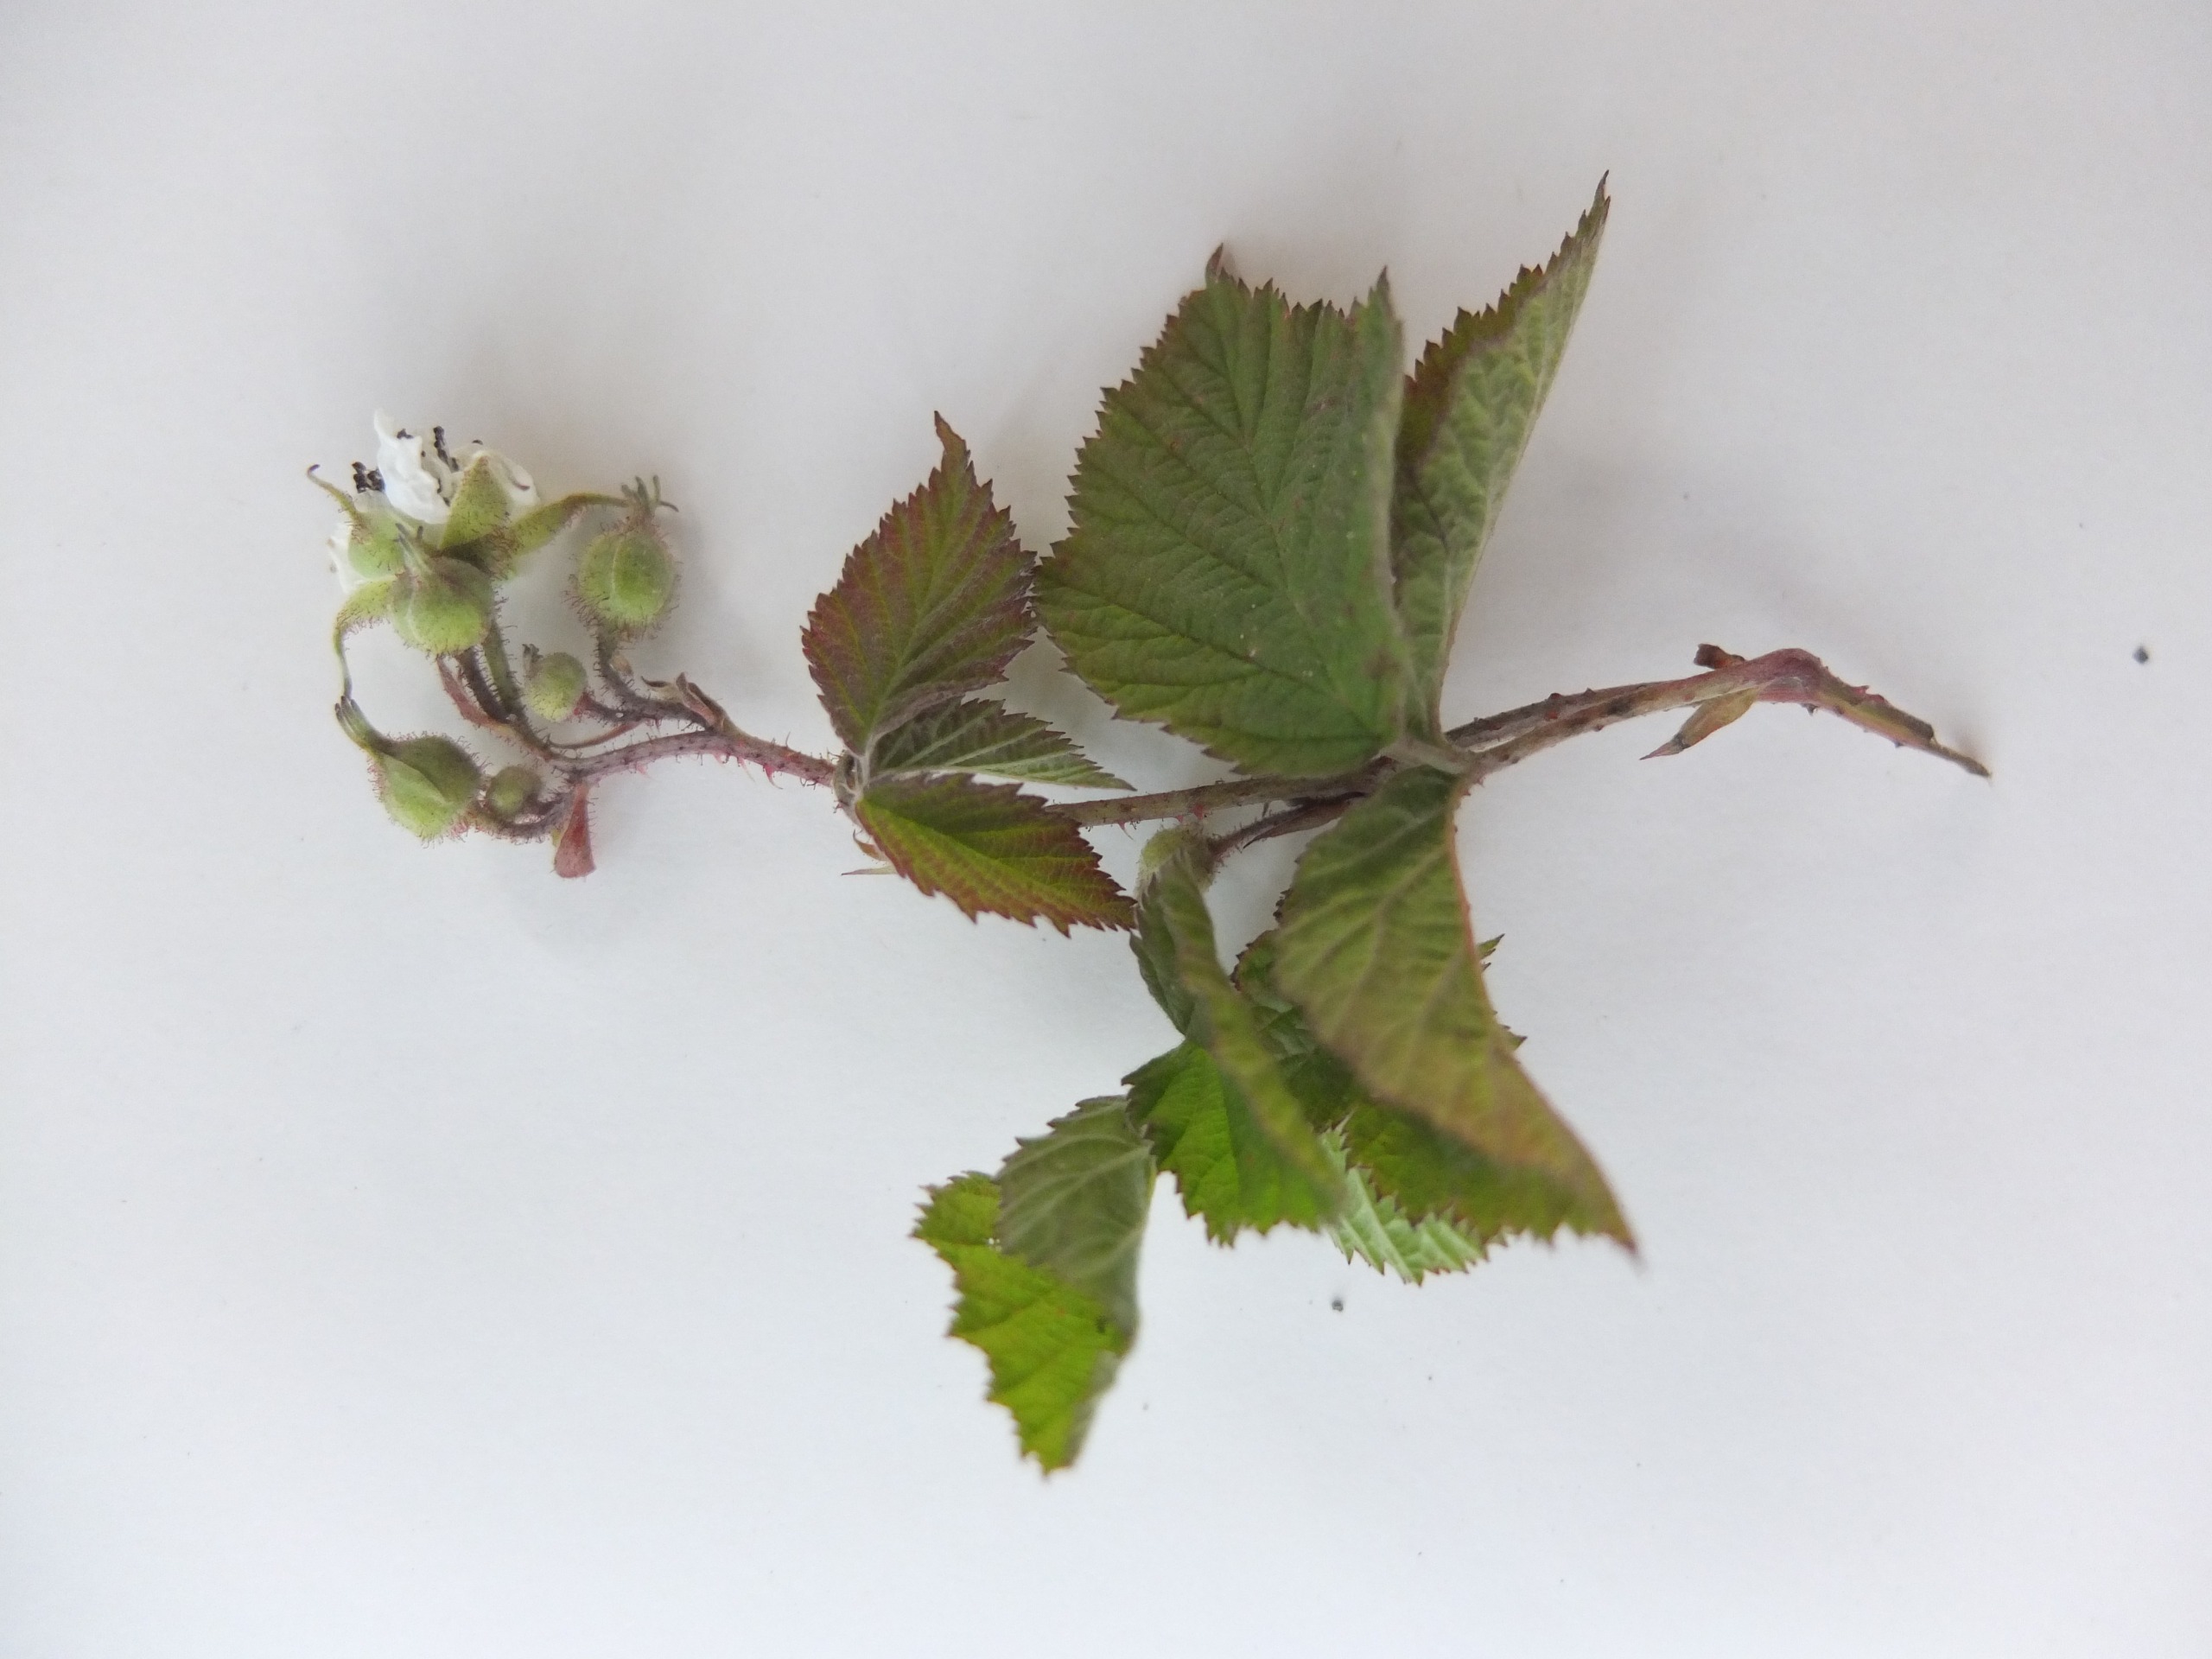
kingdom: Plantae
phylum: Tracheophyta
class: Magnoliopsida
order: Rosales
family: Rosaceae
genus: Rubus
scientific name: Rubus caesius
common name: Korbær
